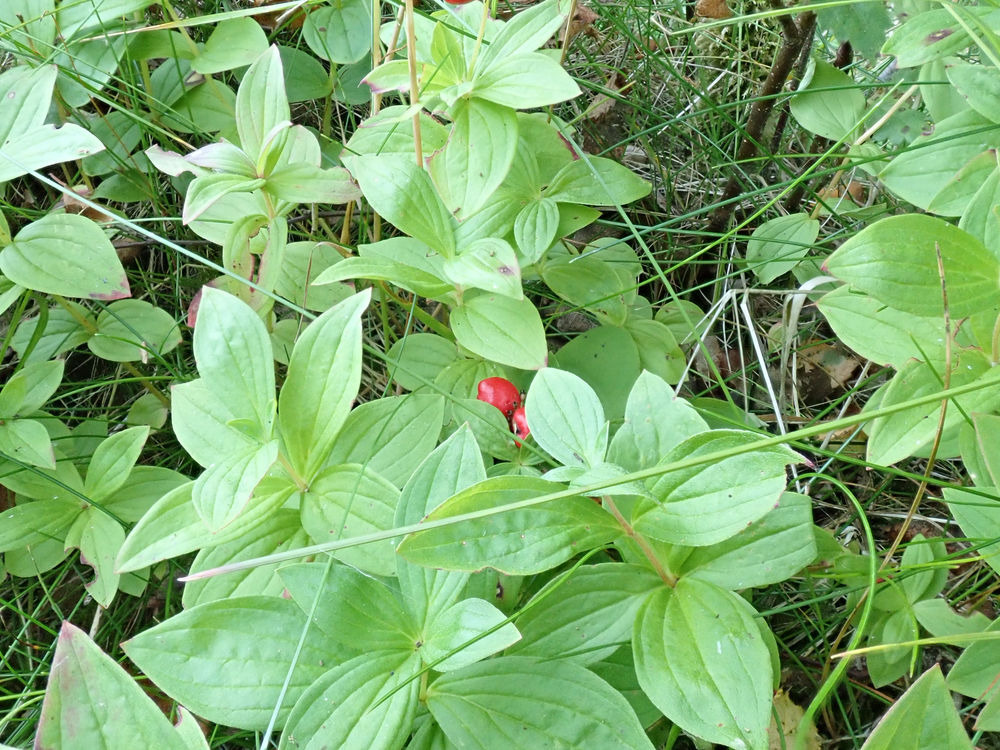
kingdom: Plantae
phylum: Tracheophyta
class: Magnoliopsida
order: Cornales
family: Cornaceae
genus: Cornus
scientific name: Cornus suecica
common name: Hønsebær
